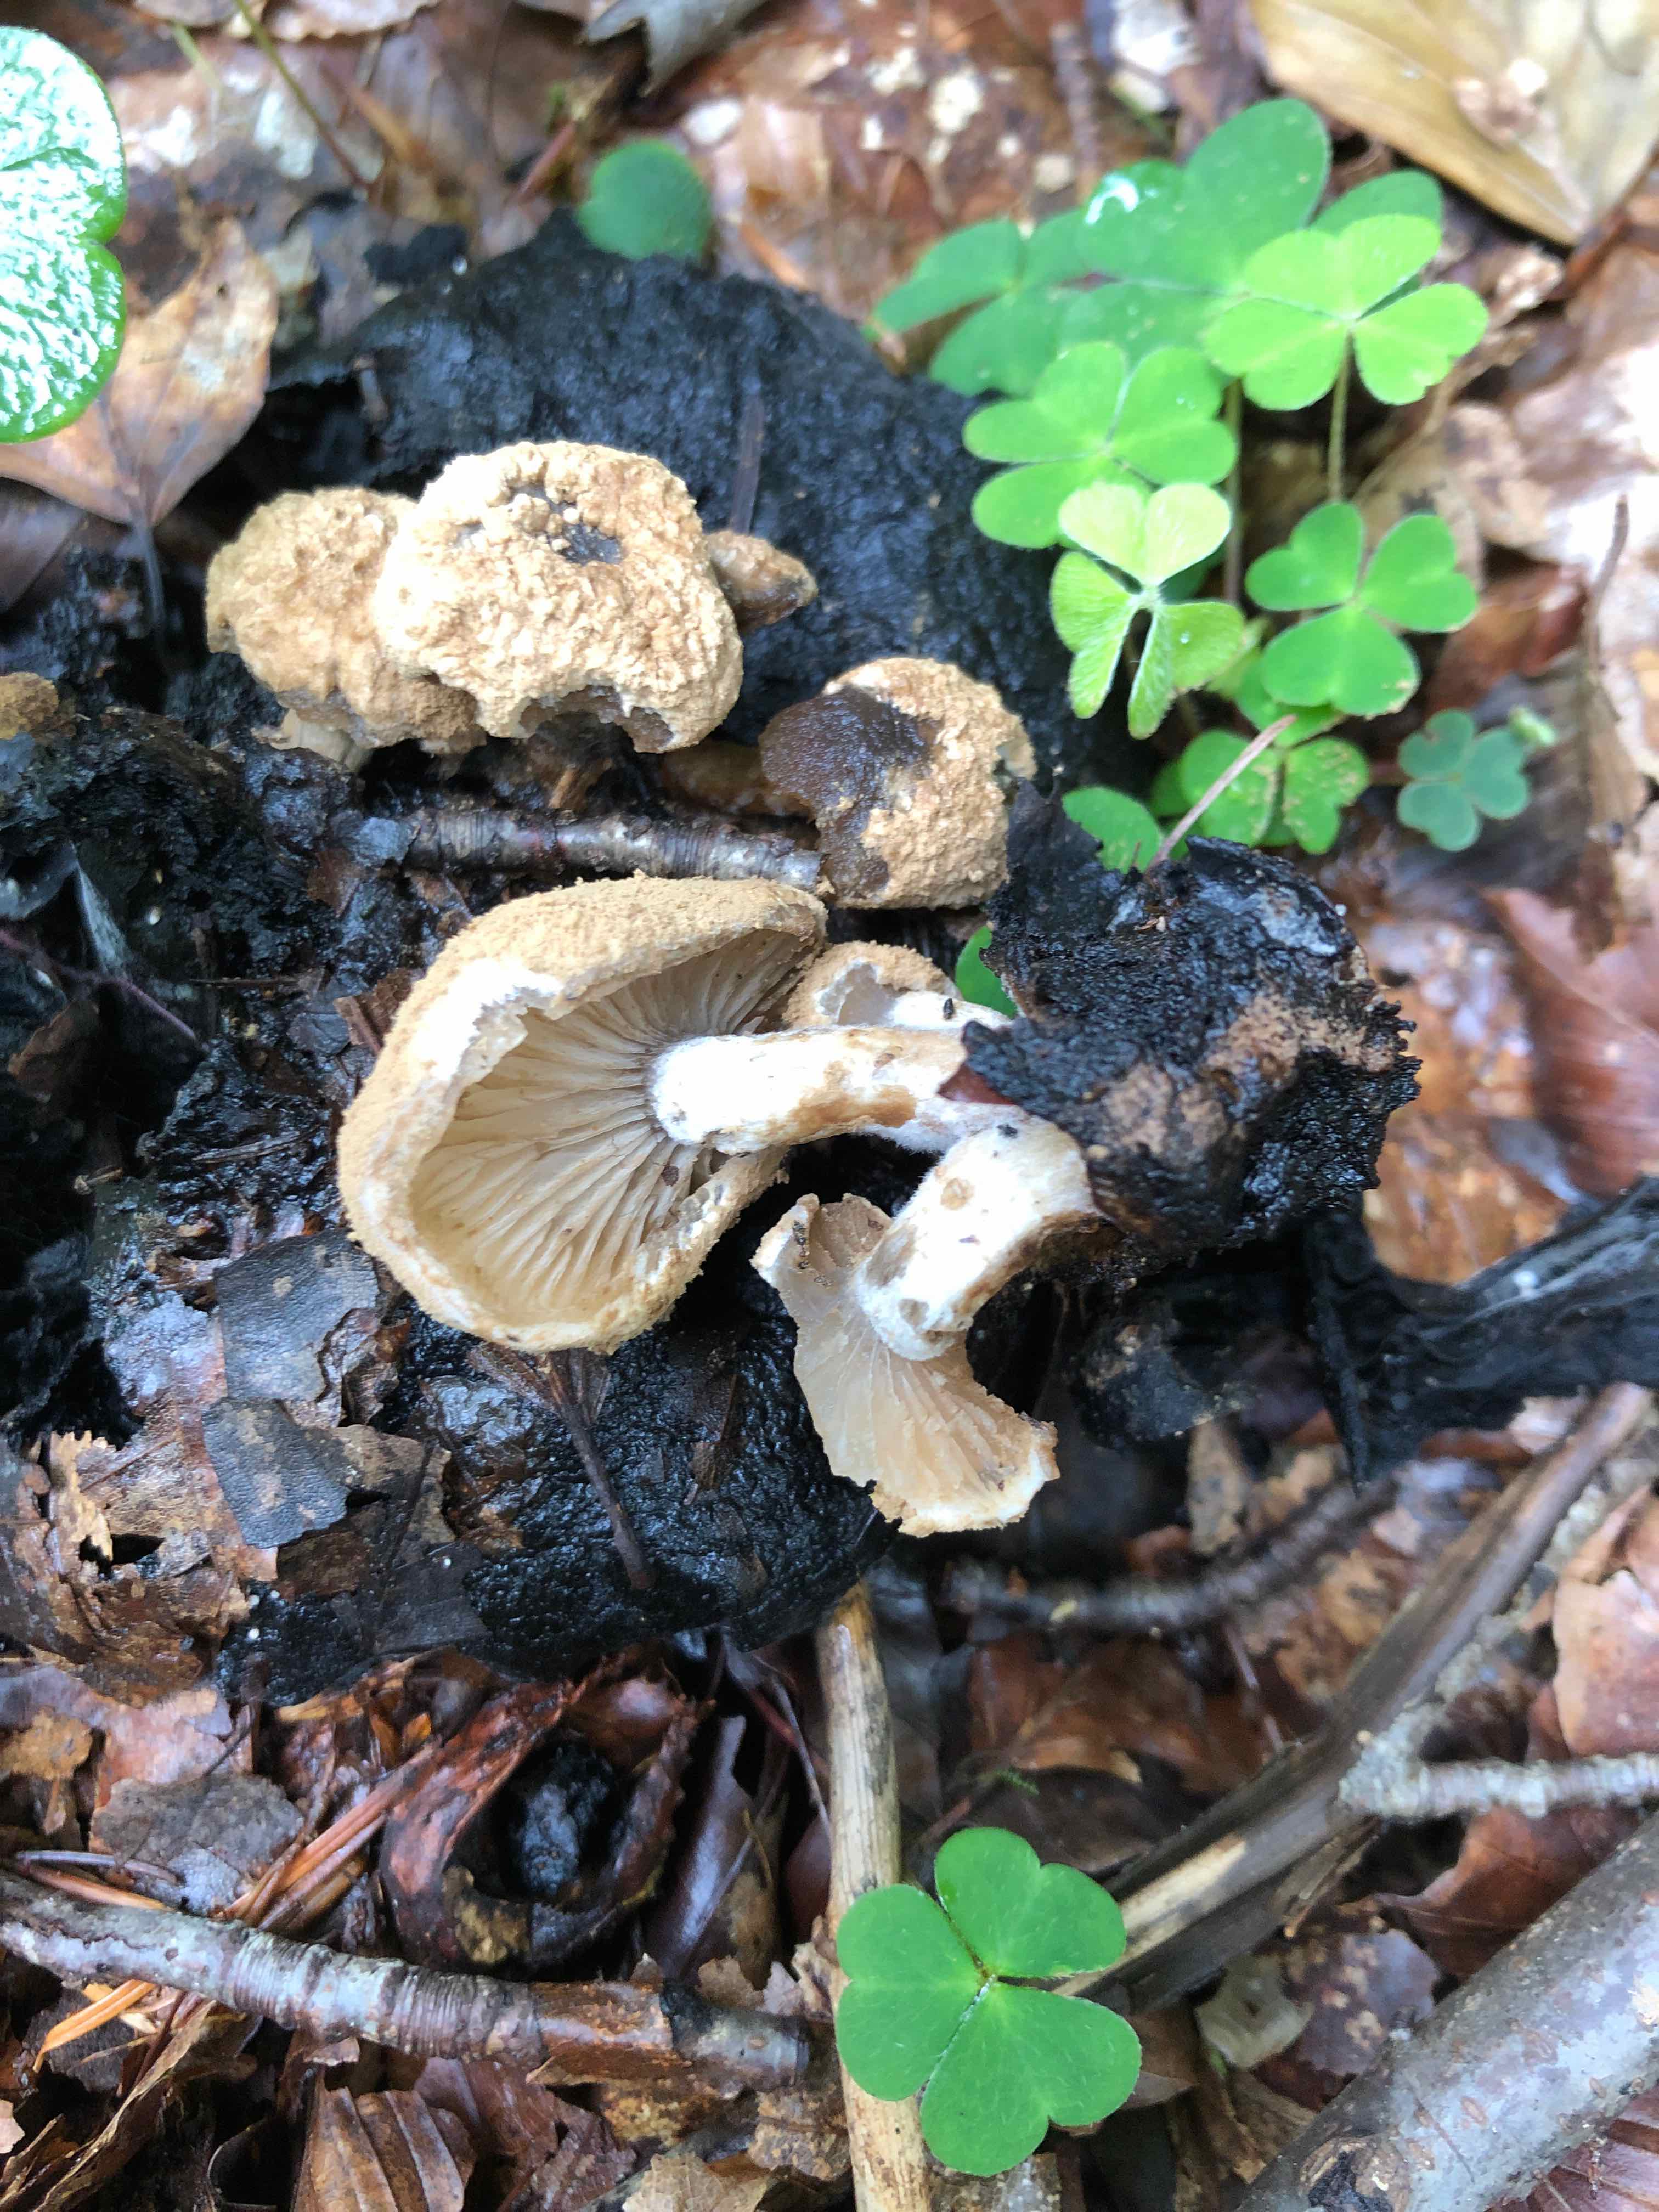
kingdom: Fungi
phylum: Basidiomycota
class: Agaricomycetes
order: Agaricales
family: Lyophyllaceae
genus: Asterophora
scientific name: Asterophora lycoperdoides
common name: brunpudret snyltehat
